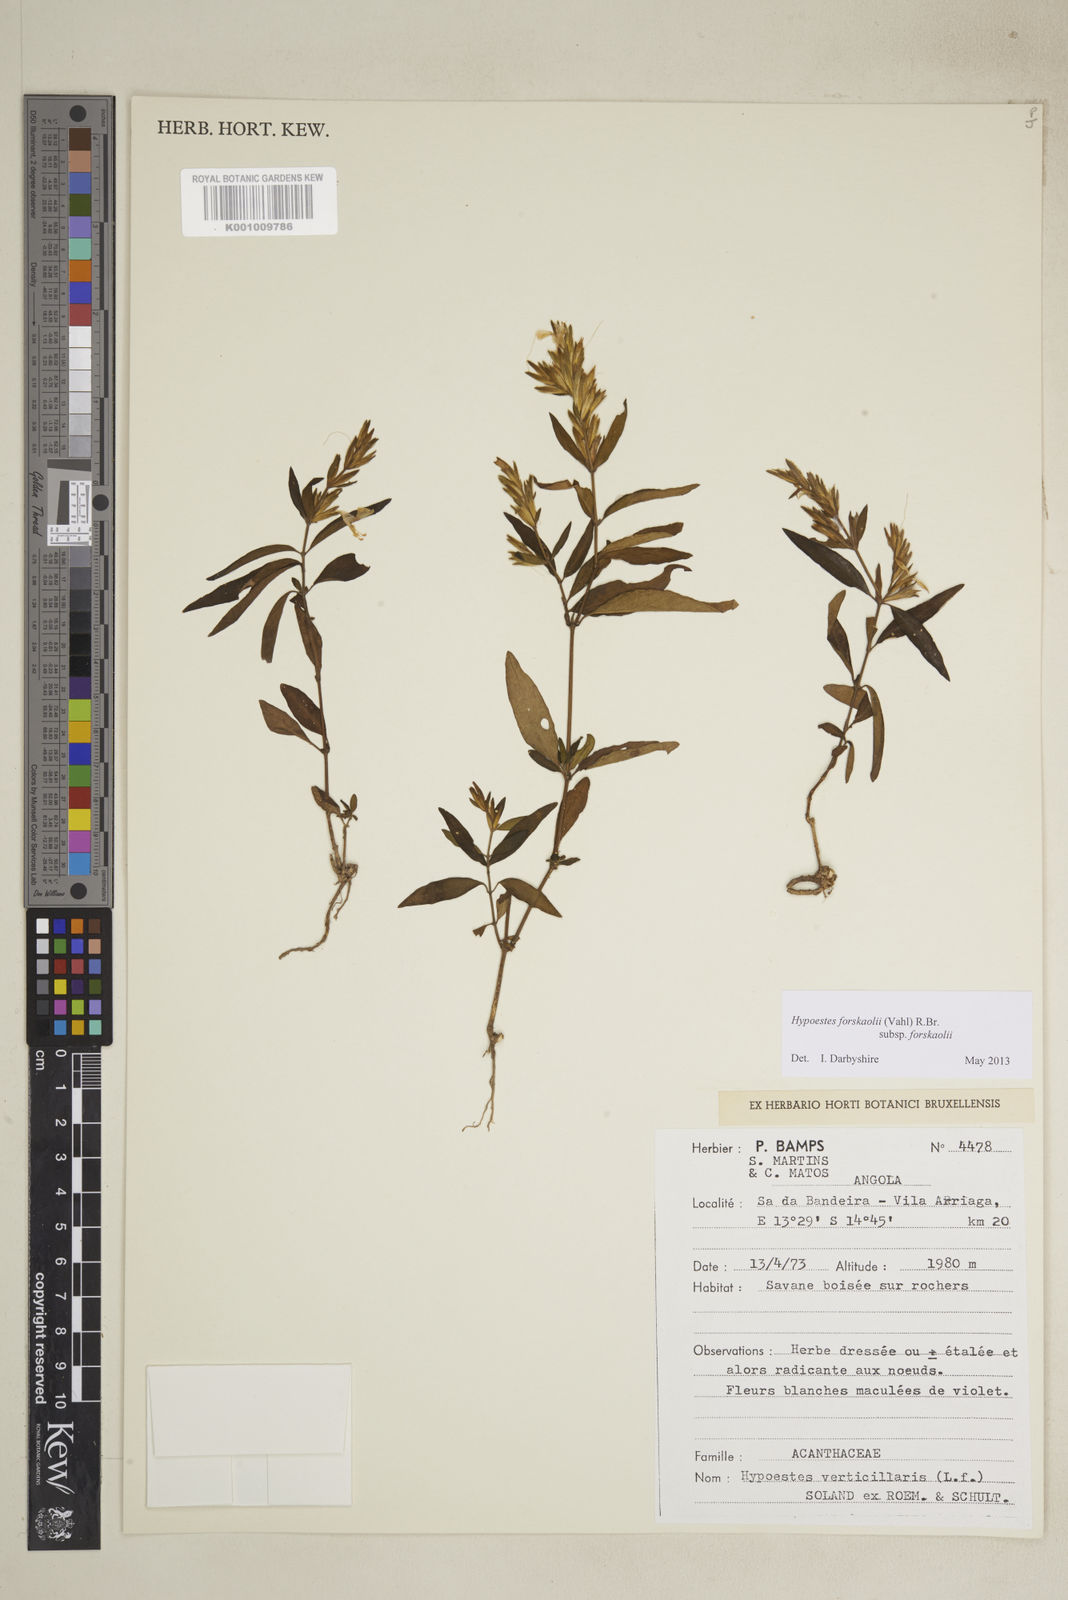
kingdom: Plantae
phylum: Tracheophyta
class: Magnoliopsida
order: Lamiales
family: Acanthaceae
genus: Hypoestes
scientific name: Hypoestes forskaolii
